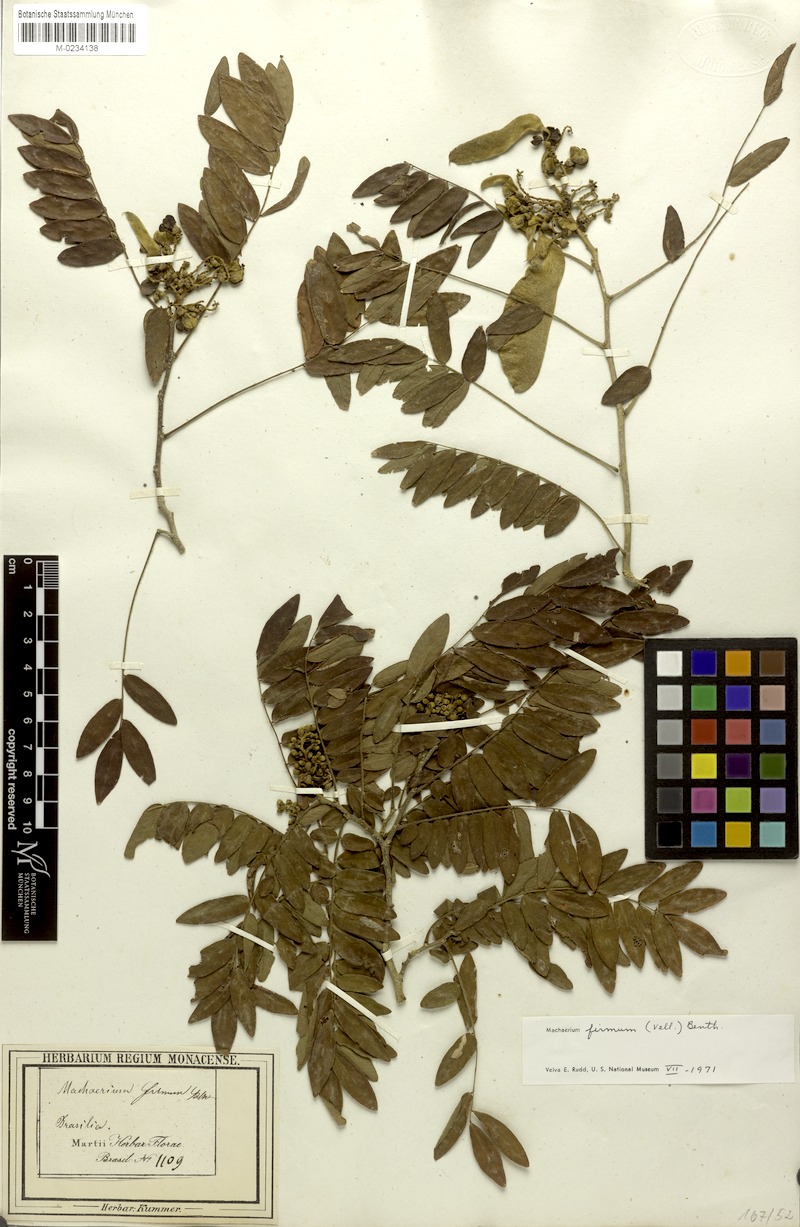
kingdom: Plantae
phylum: Tracheophyta
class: Magnoliopsida
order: Fabales
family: Fabaceae
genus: Machaerium
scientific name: Machaerium firmum
